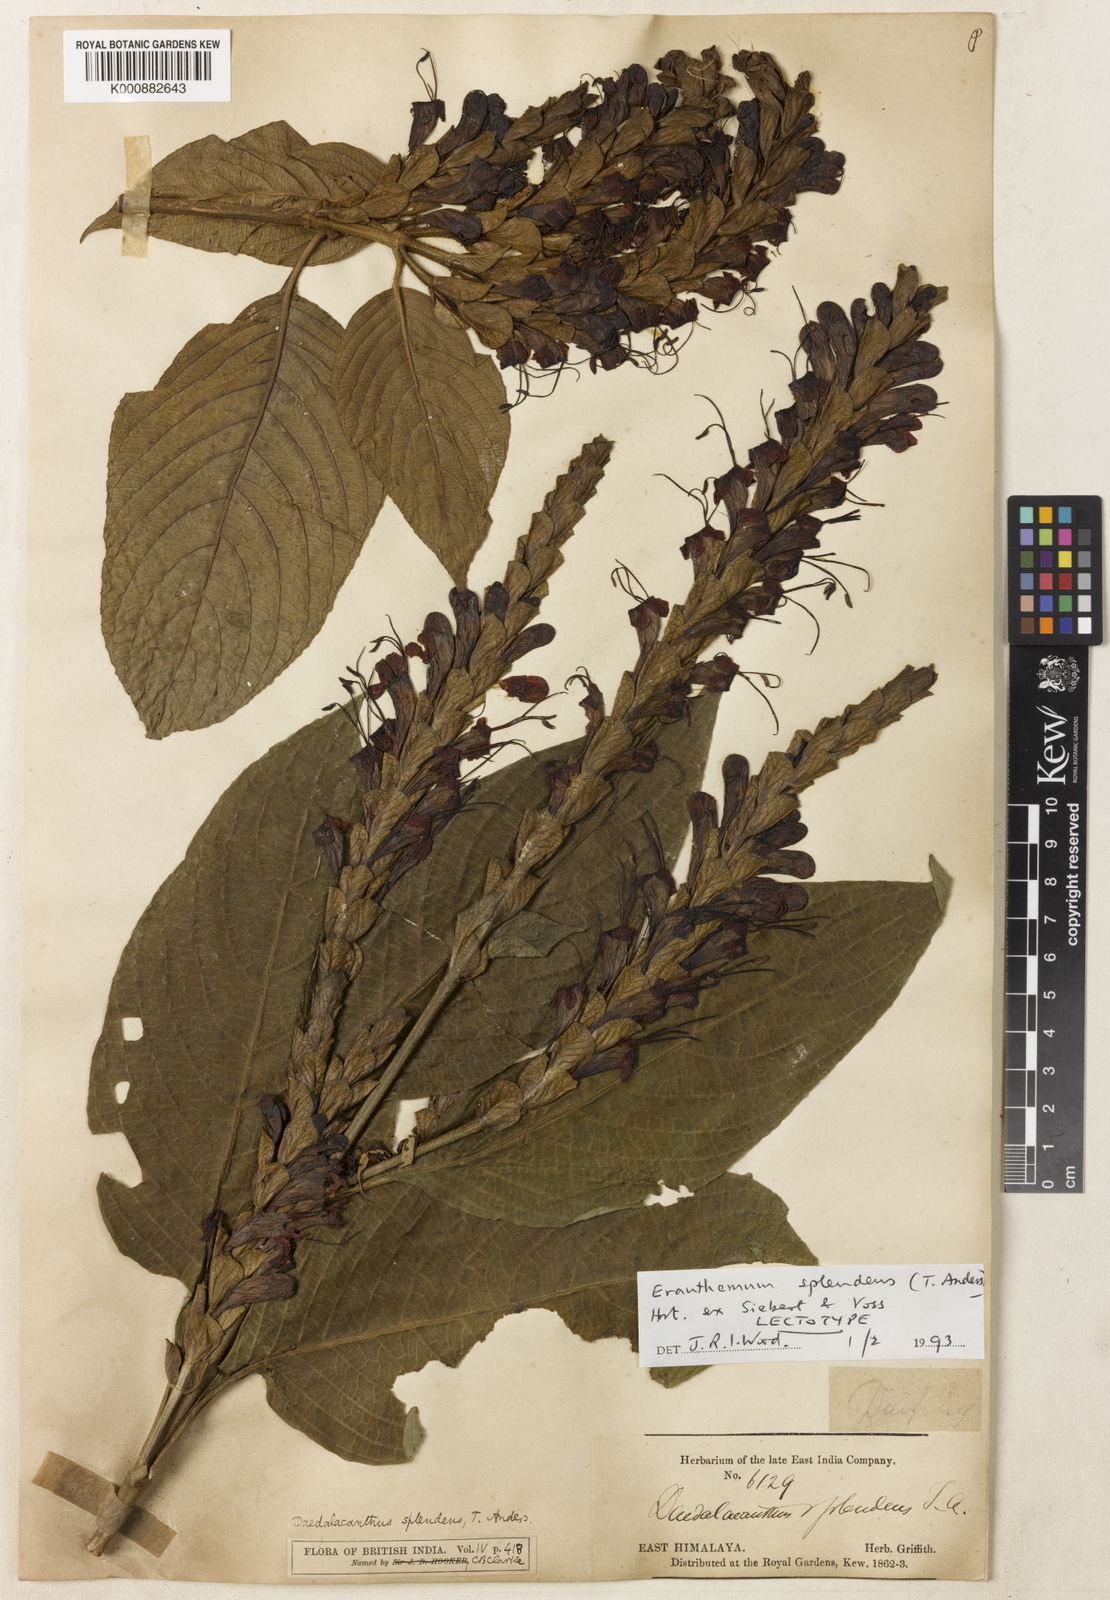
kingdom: Plantae
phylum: Tracheophyta
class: Magnoliopsida
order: Lamiales
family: Acanthaceae
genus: Eranthemum
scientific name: Eranthemum splendens
